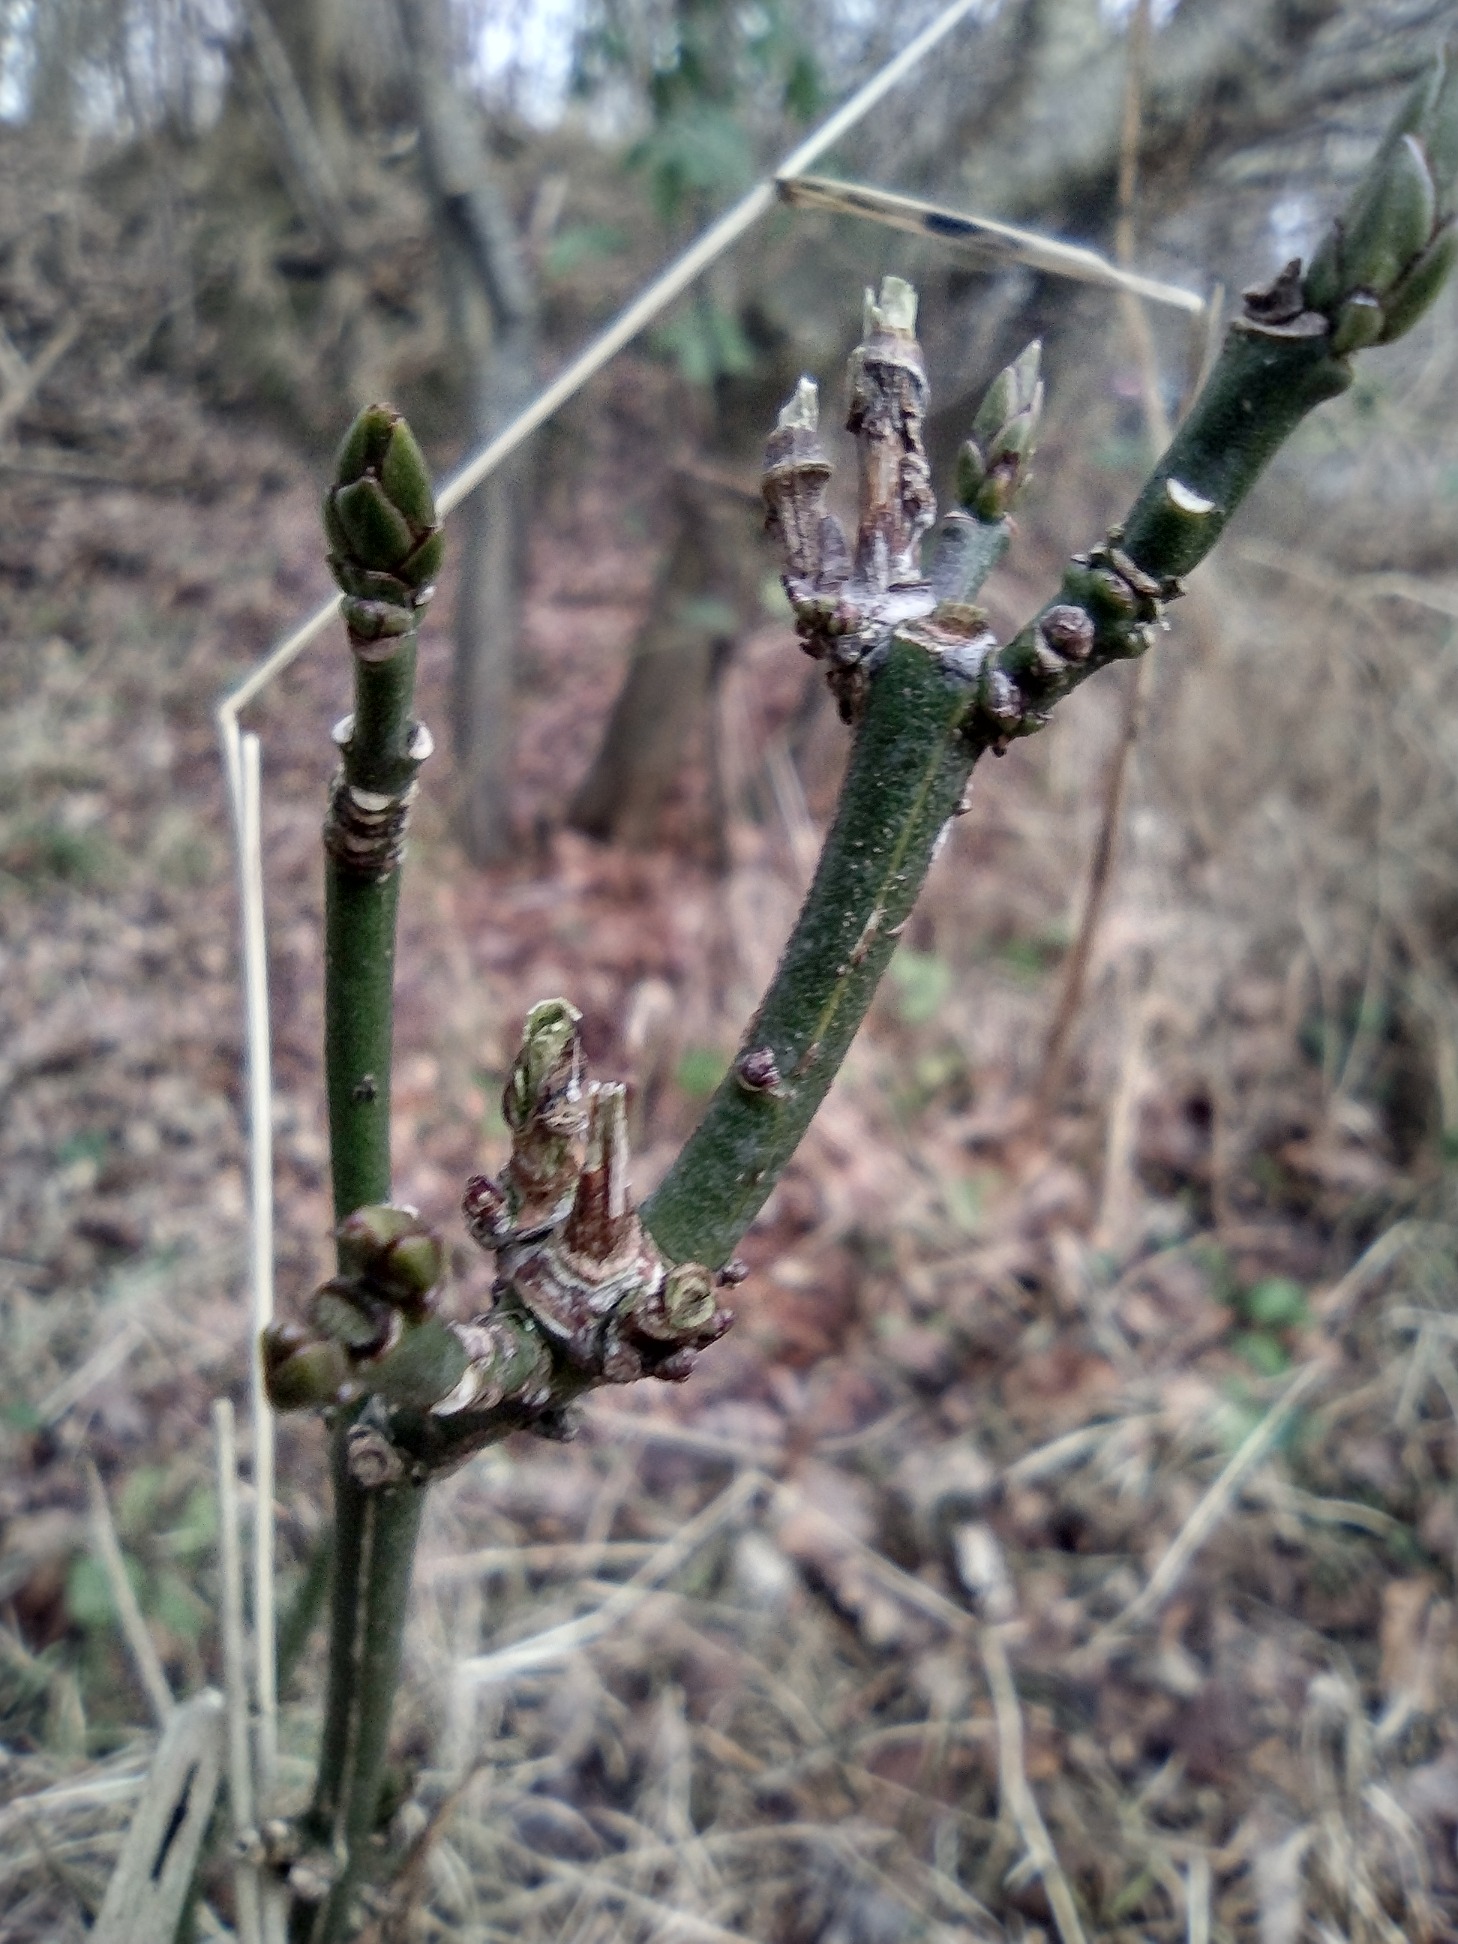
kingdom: Plantae
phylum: Tracheophyta
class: Magnoliopsida
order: Celastrales
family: Celastraceae
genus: Euonymus
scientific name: Euonymus europaeus
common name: Benved
